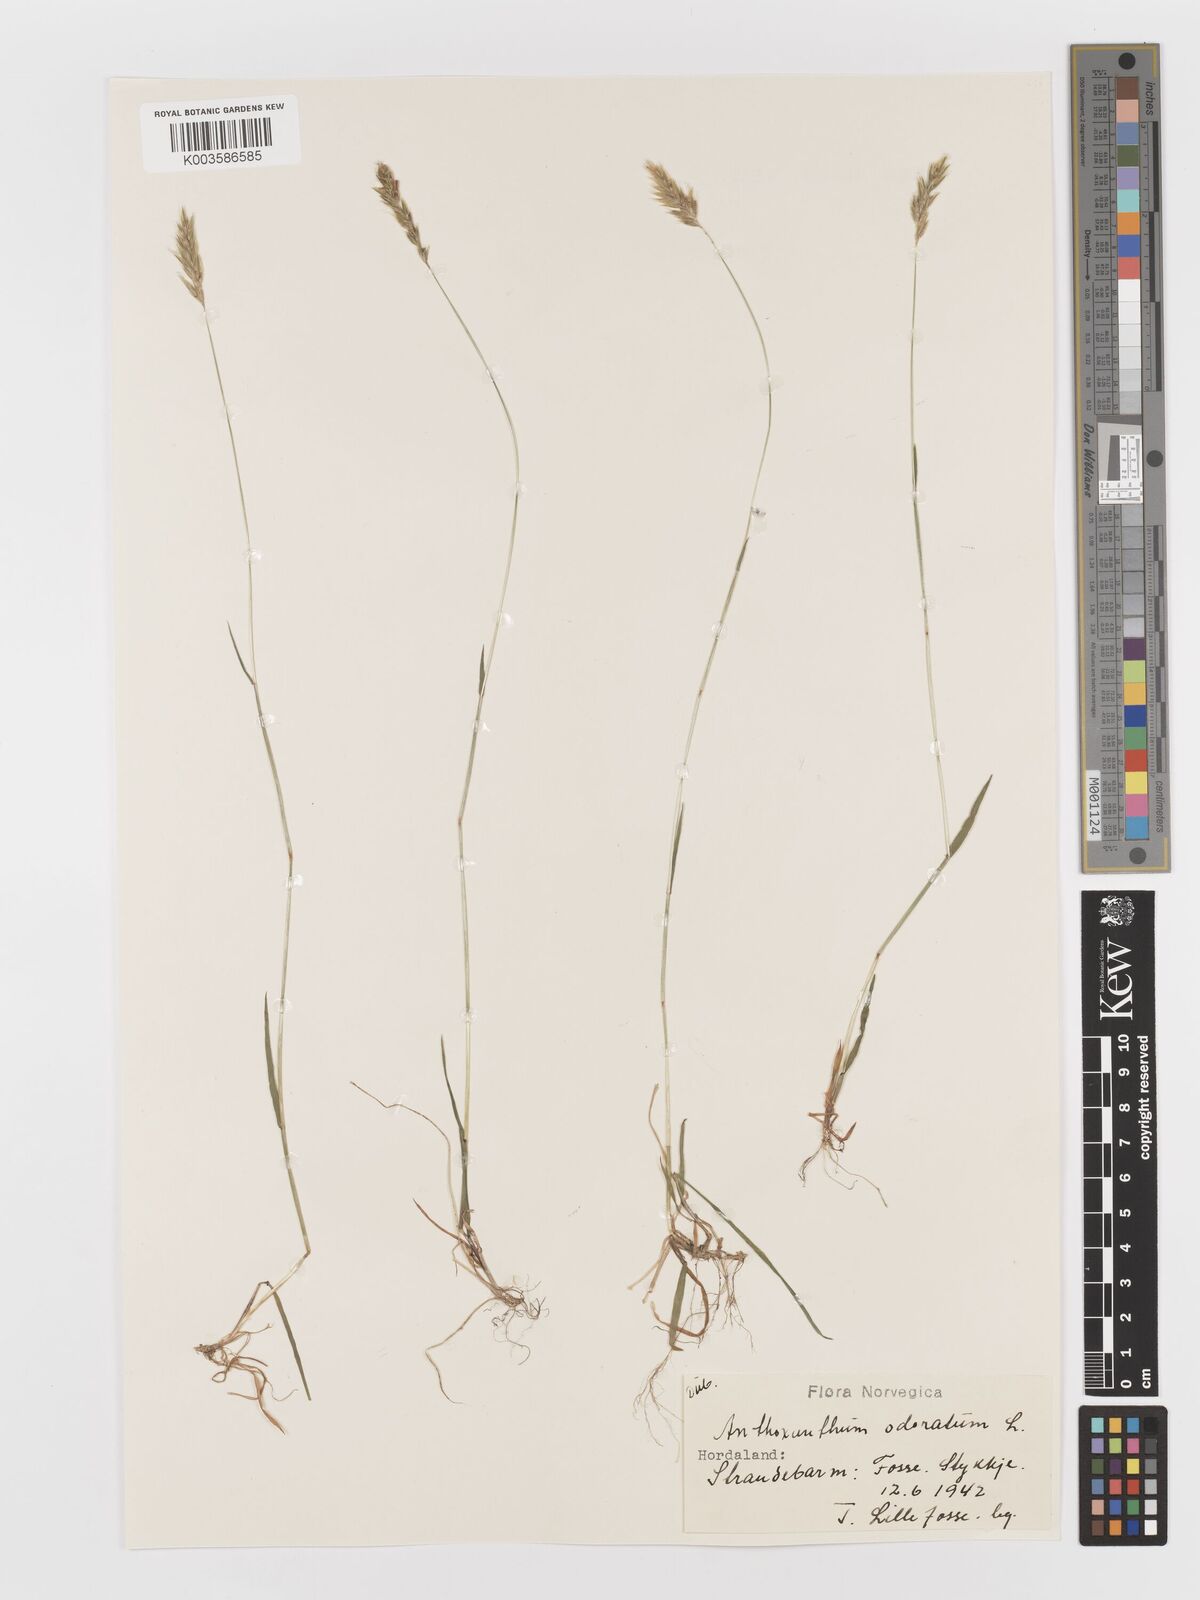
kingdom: Plantae
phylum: Tracheophyta
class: Liliopsida
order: Poales
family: Poaceae
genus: Anthoxanthum
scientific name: Anthoxanthum odoratum
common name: Sweet vernalgrass
